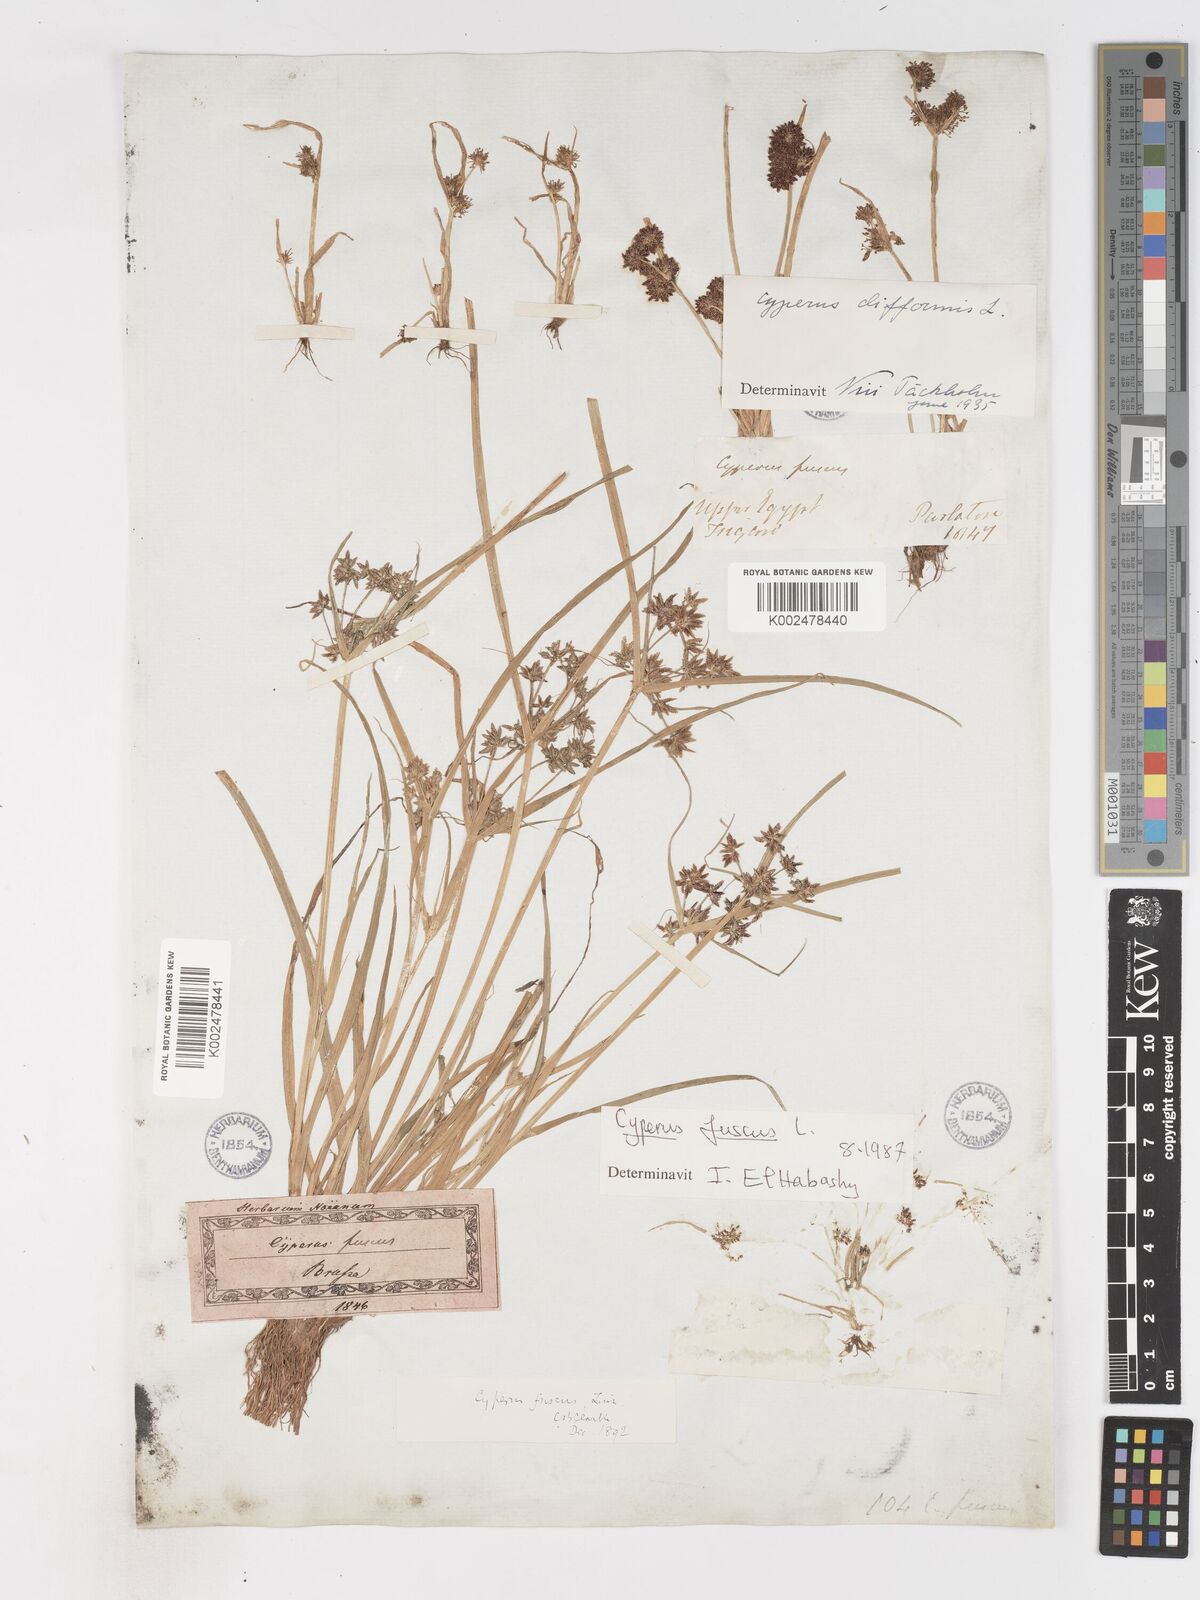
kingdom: Plantae
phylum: Tracheophyta
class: Liliopsida
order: Poales
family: Cyperaceae
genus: Cyperus
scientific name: Cyperus fuscus
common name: Brown galingale
